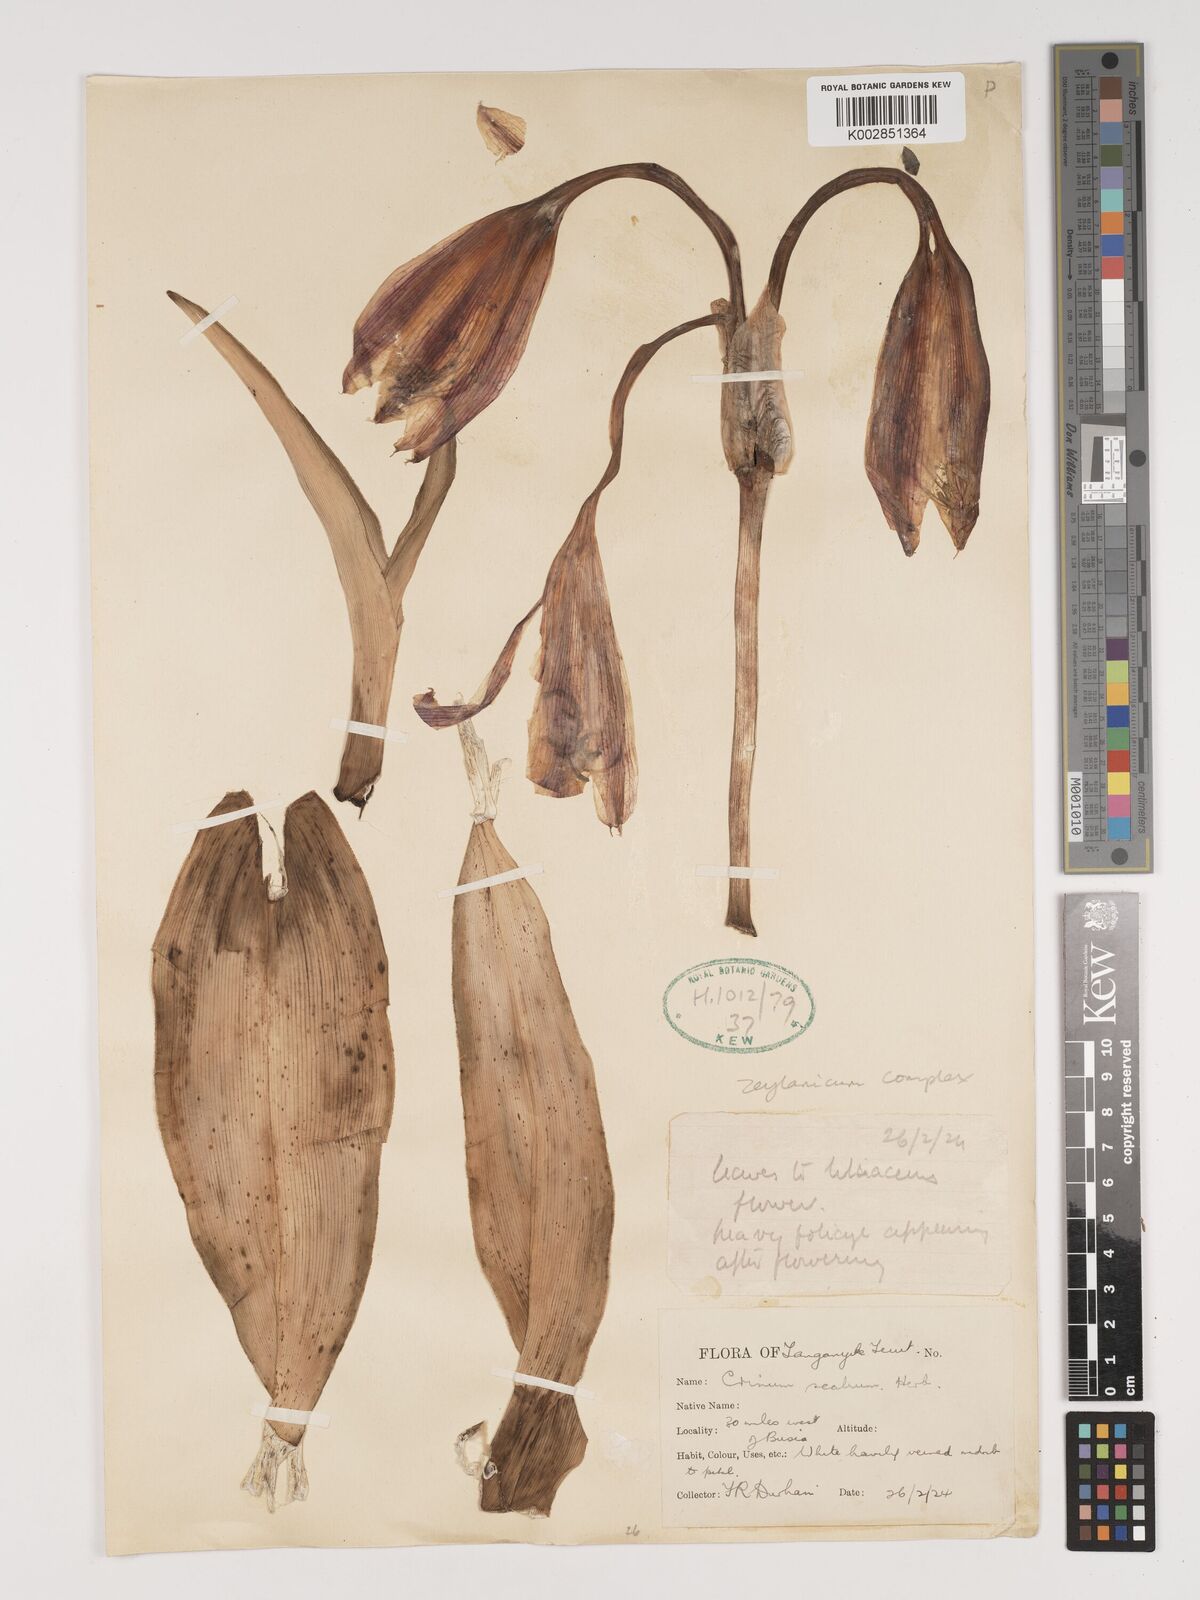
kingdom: Plantae
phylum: Tracheophyta
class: Liliopsida
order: Asparagales
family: Amaryllidaceae
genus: Crinum
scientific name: Crinum zeylanicum
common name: Ceylon swamplily
